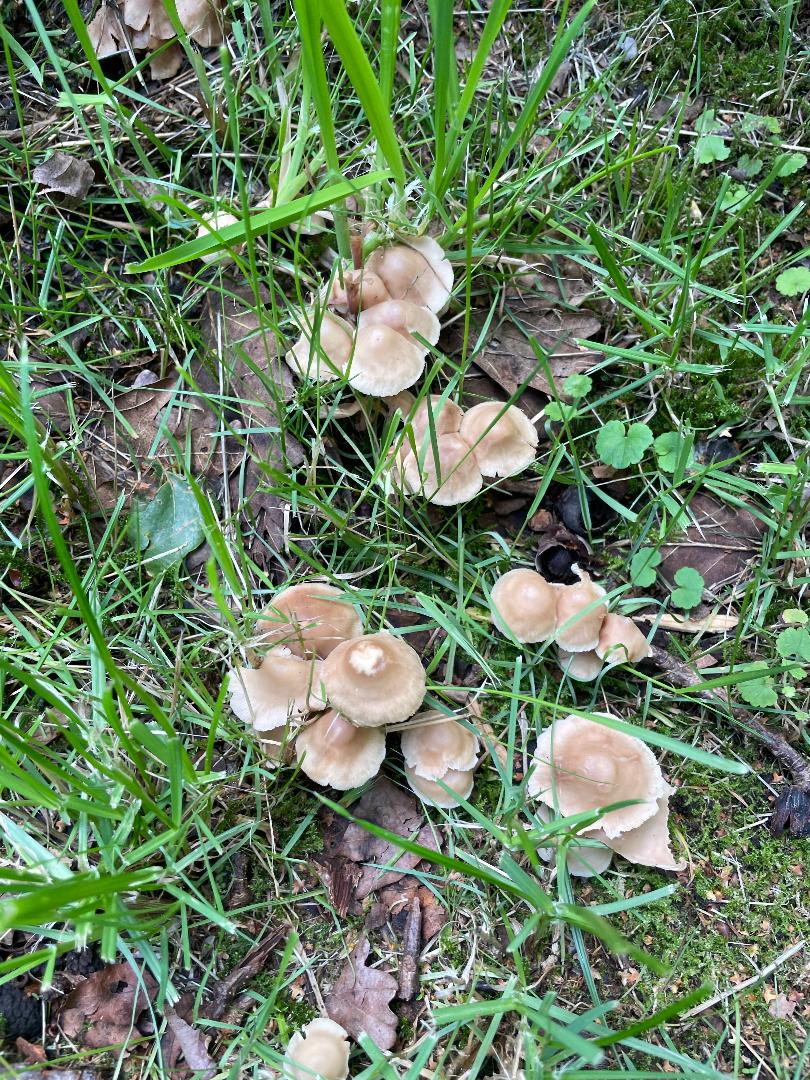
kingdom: Fungi
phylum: Basidiomycota
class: Agaricomycetes
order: Agaricales
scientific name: Agaricales
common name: champignonordenen
